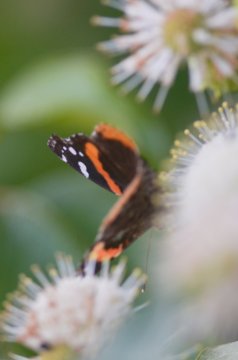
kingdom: Animalia
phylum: Arthropoda
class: Insecta
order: Lepidoptera
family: Nymphalidae
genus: Vanessa
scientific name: Vanessa atalanta
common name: Red Admiral
